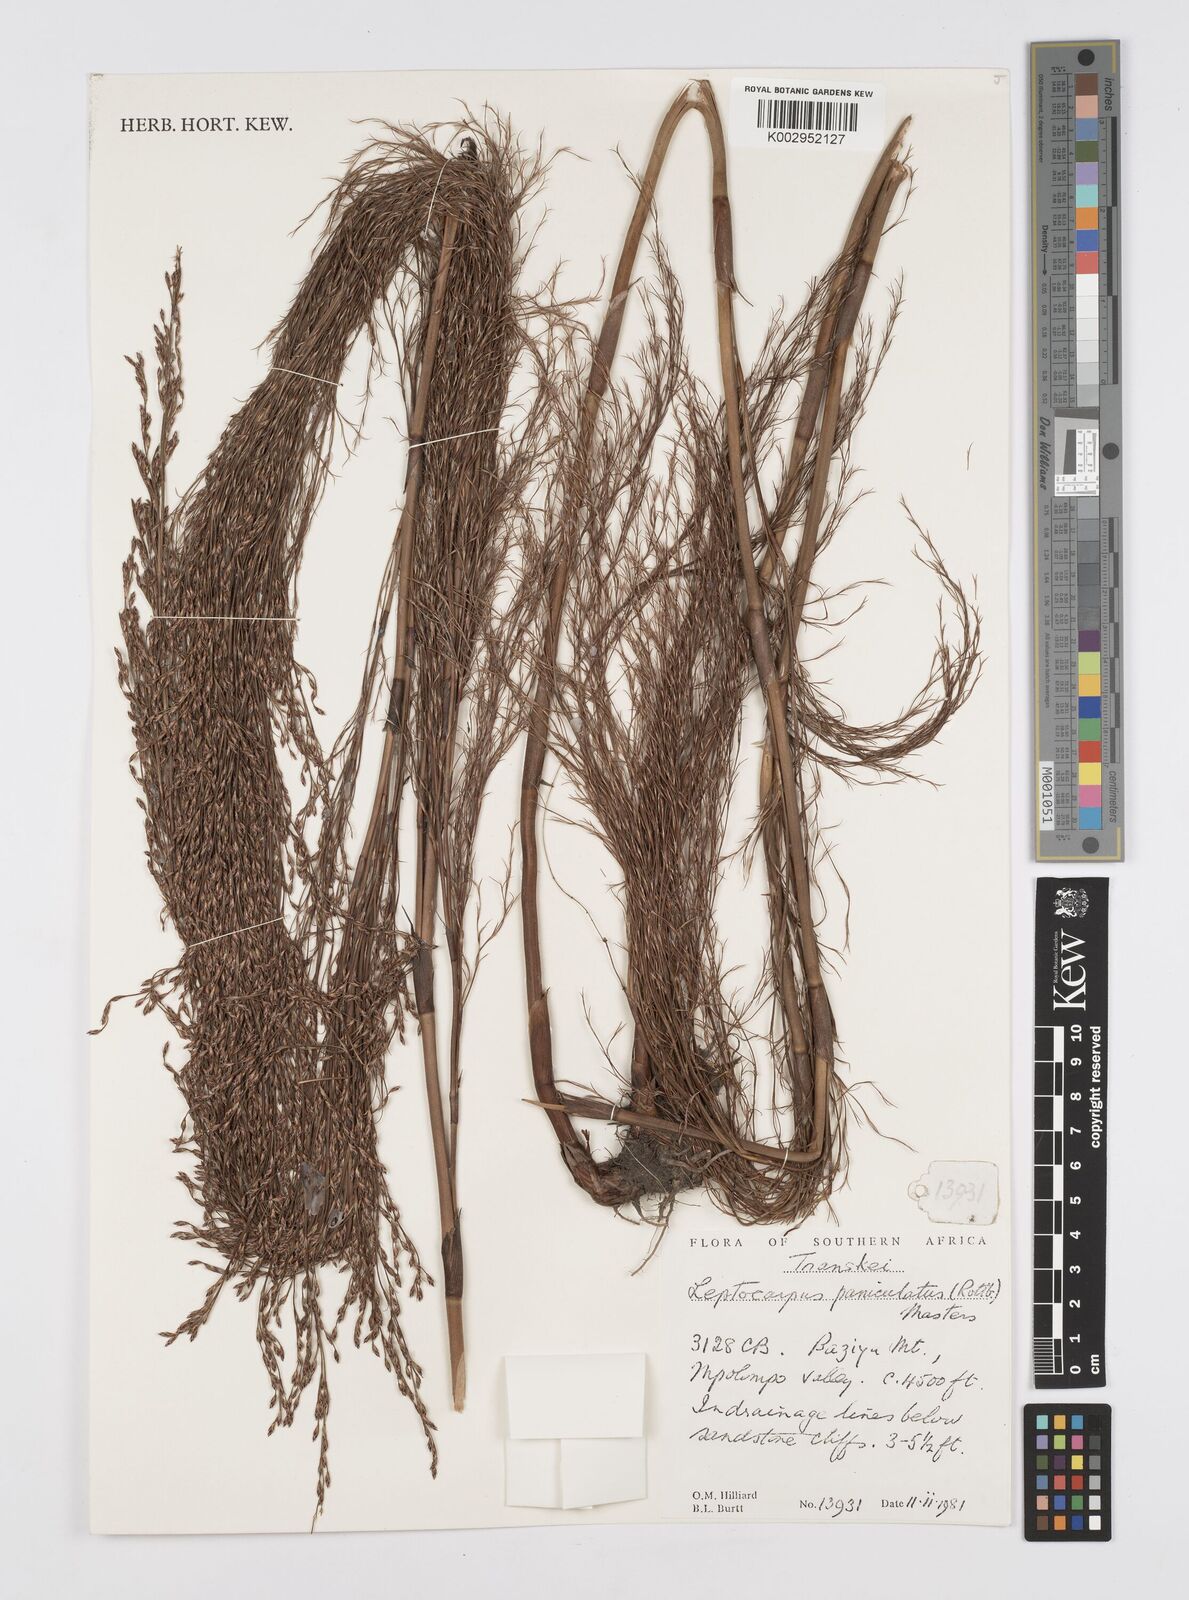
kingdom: Plantae
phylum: Tracheophyta
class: Liliopsida
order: Poales
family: Restionaceae
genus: Restio
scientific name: Restio paniculatus
